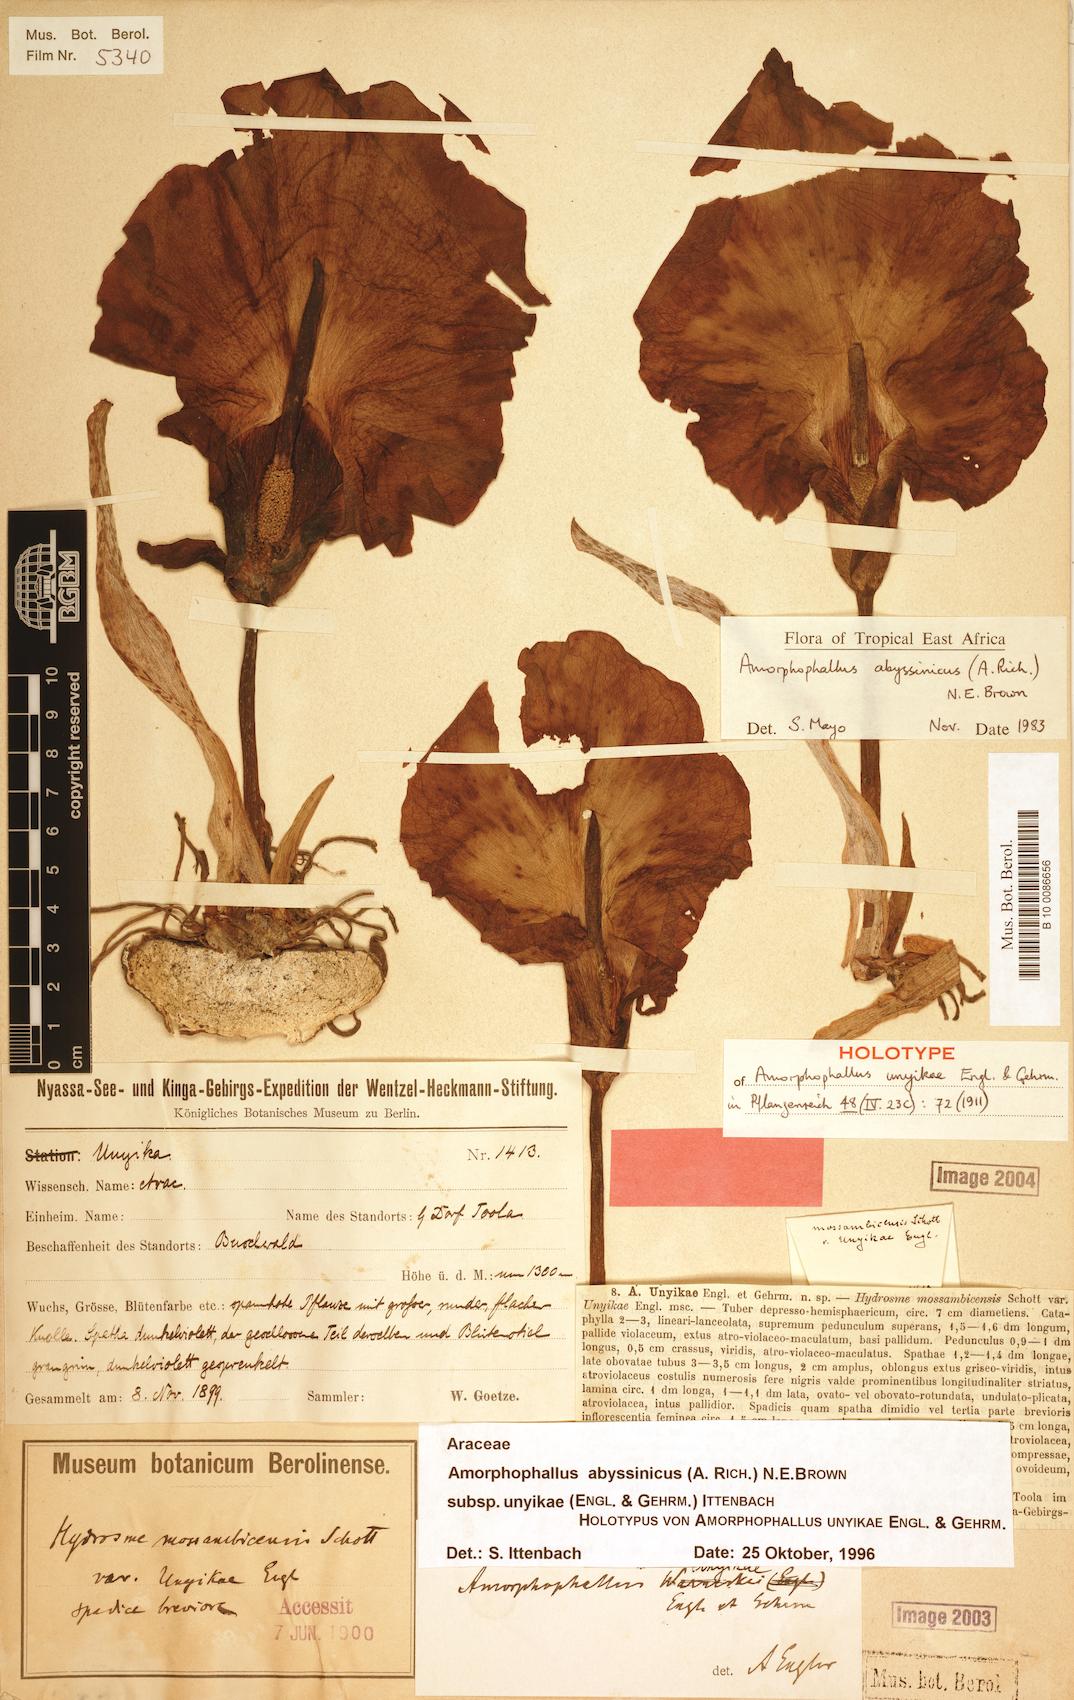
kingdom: Plantae
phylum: Tracheophyta
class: Liliopsida
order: Alismatales
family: Araceae
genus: Amorphophallus
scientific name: Amorphophallus abyssinicus
